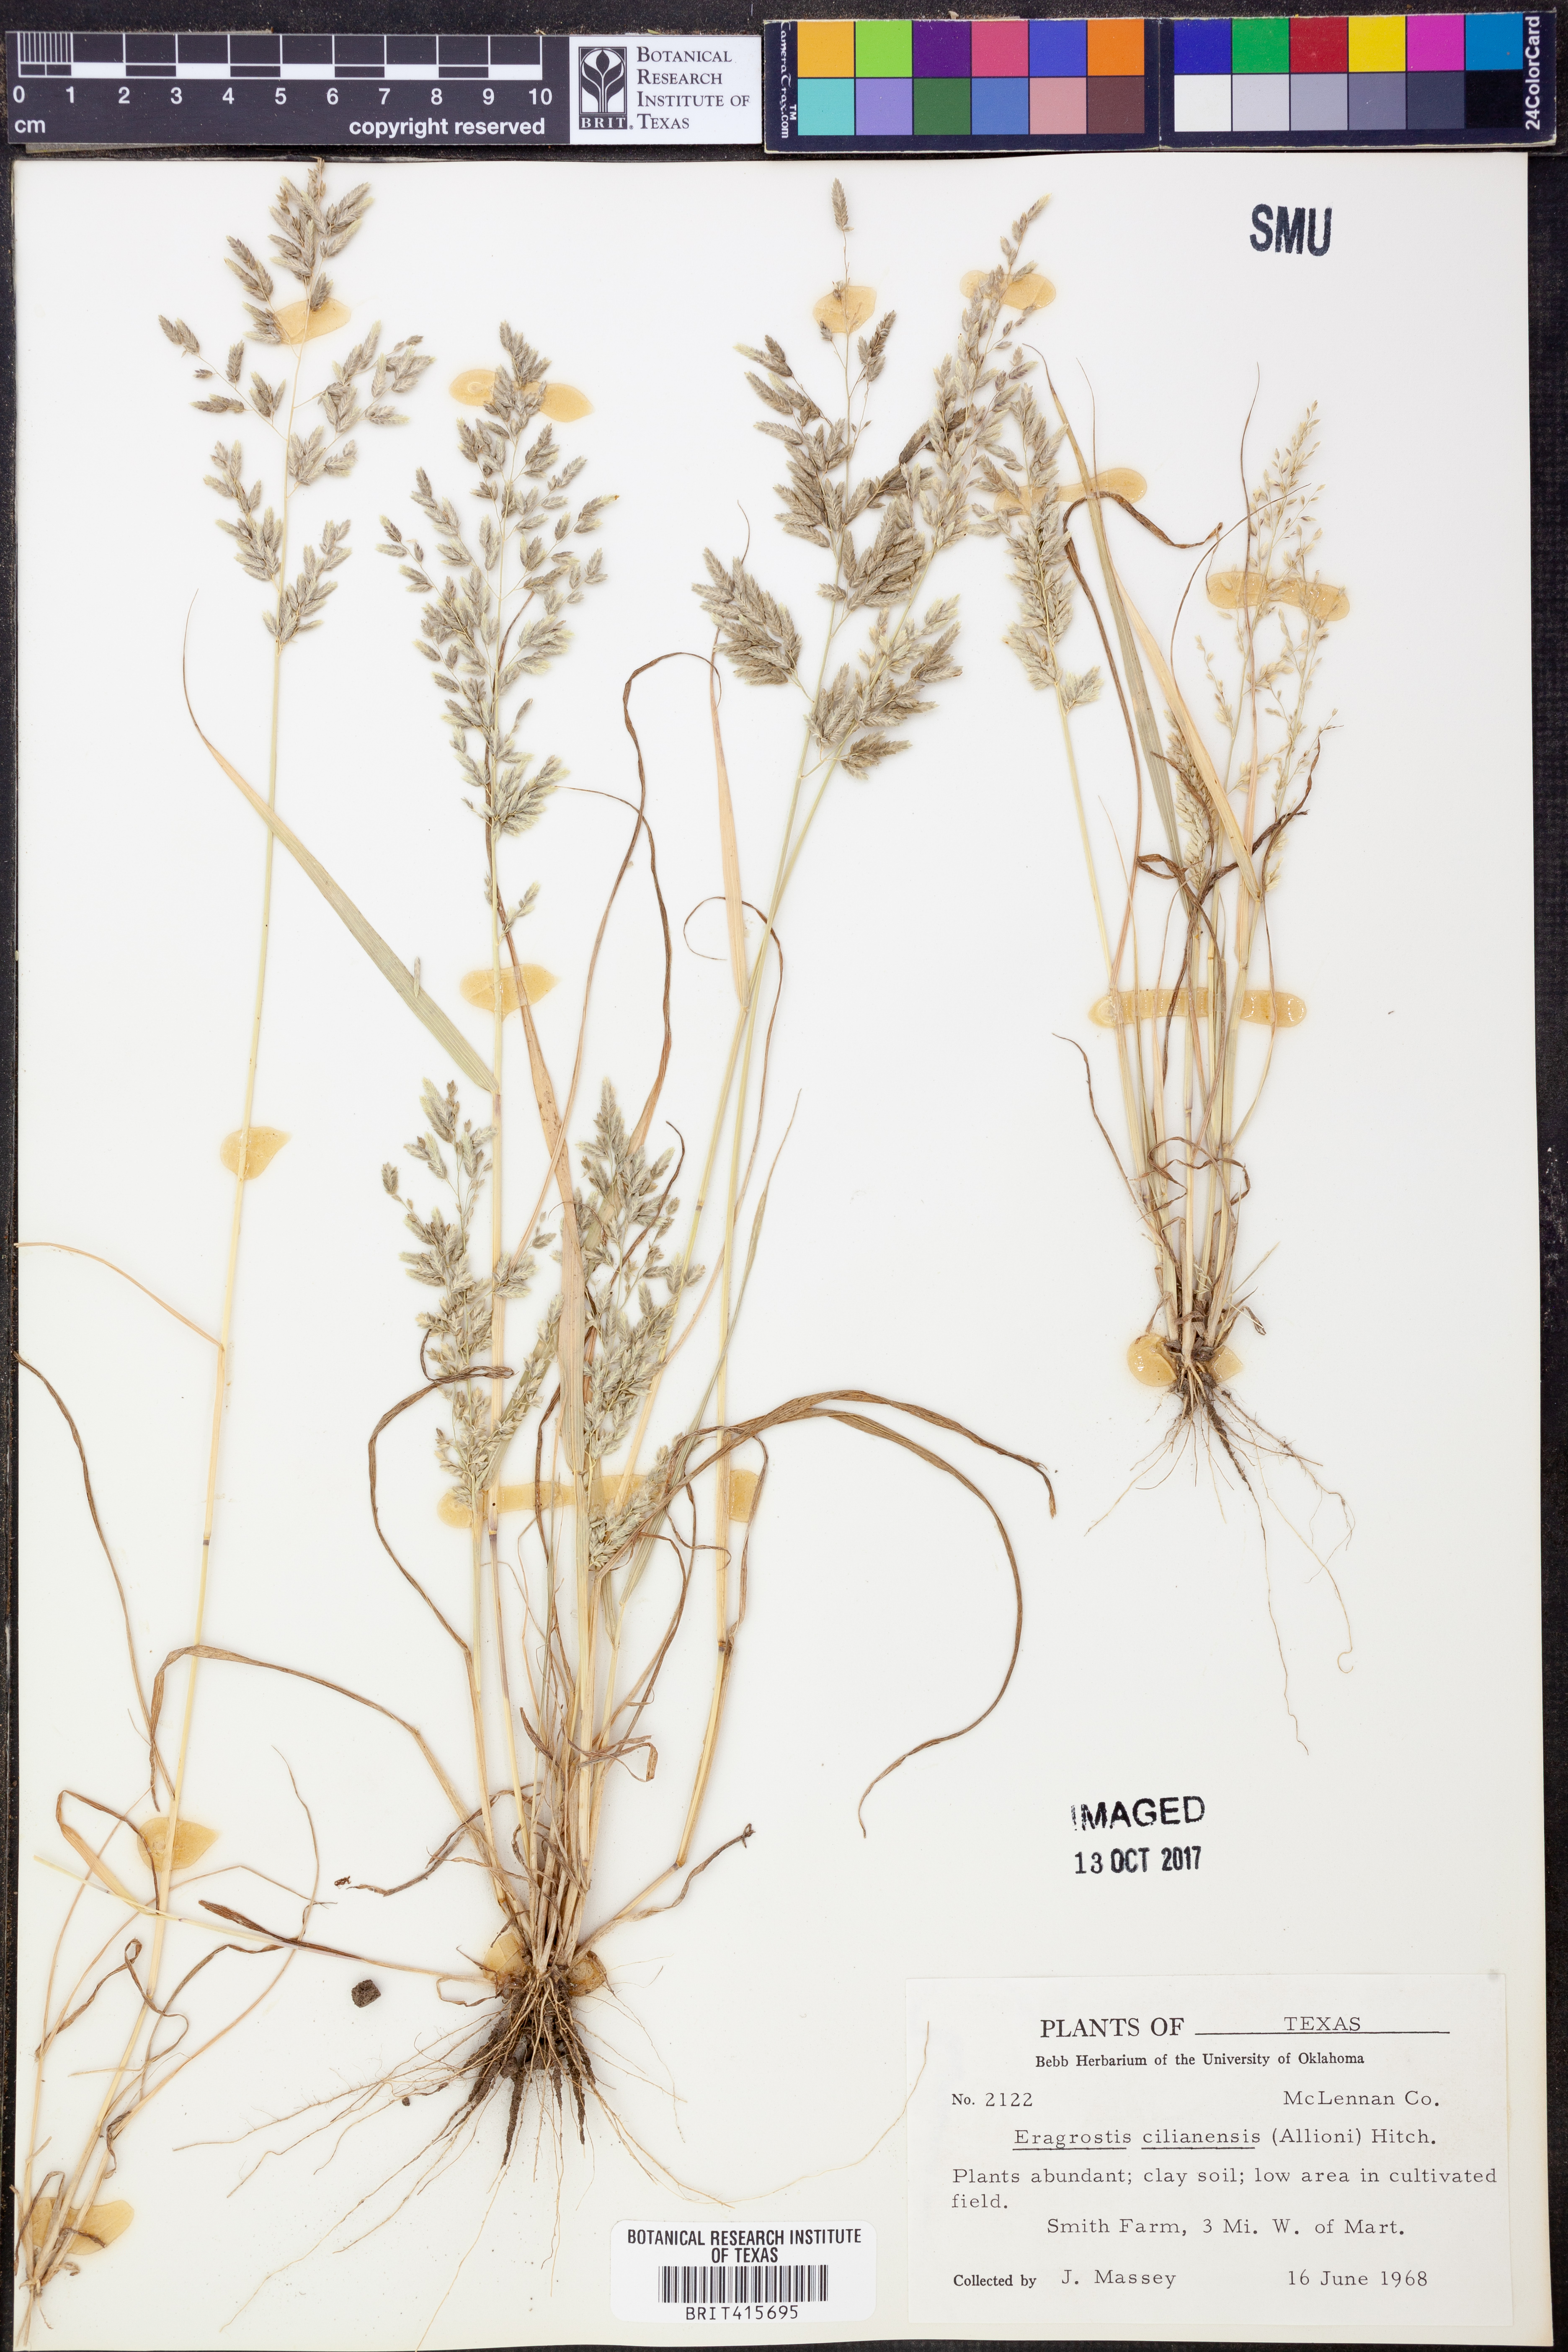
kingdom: Plantae
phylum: Tracheophyta
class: Liliopsida
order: Poales
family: Poaceae
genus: Eragrostis
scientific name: Eragrostis cilianensis
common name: Stinkgrass
